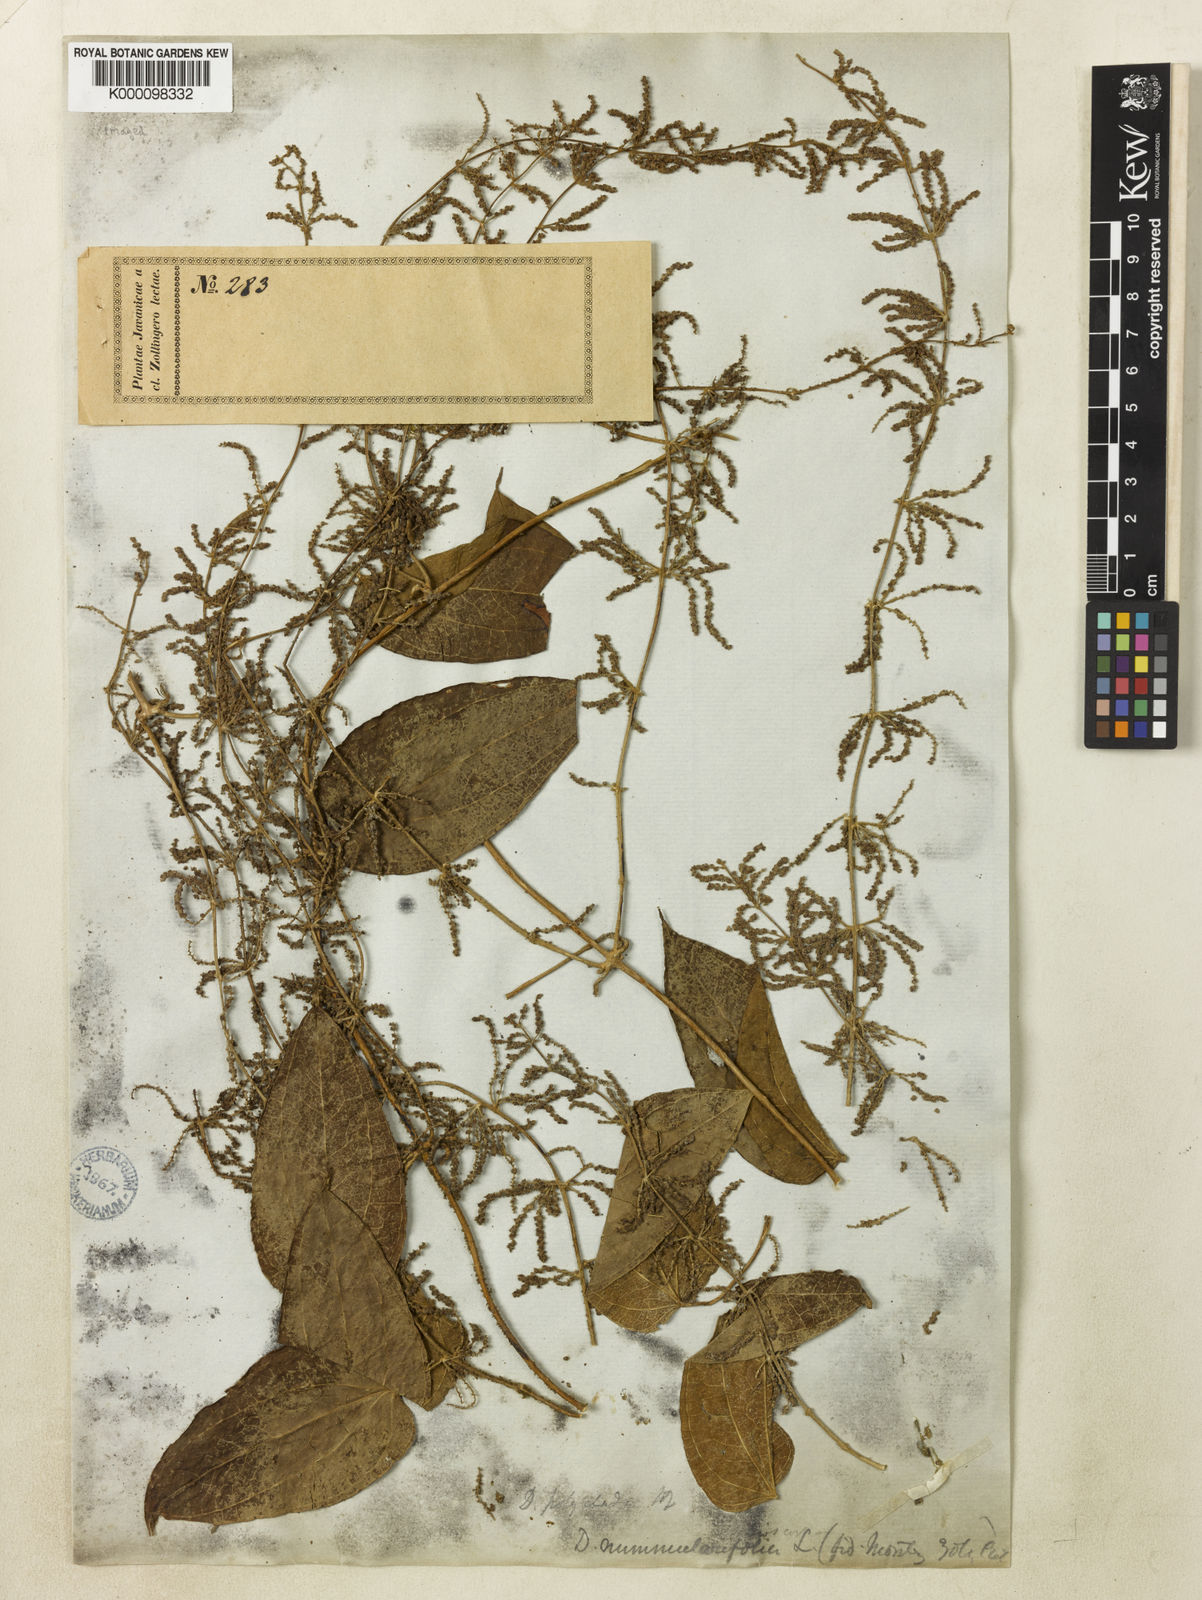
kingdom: Plantae
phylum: Tracheophyta
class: Liliopsida
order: Dioscoreales
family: Dioscoreaceae
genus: Dioscorea
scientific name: Dioscorea polyclados
